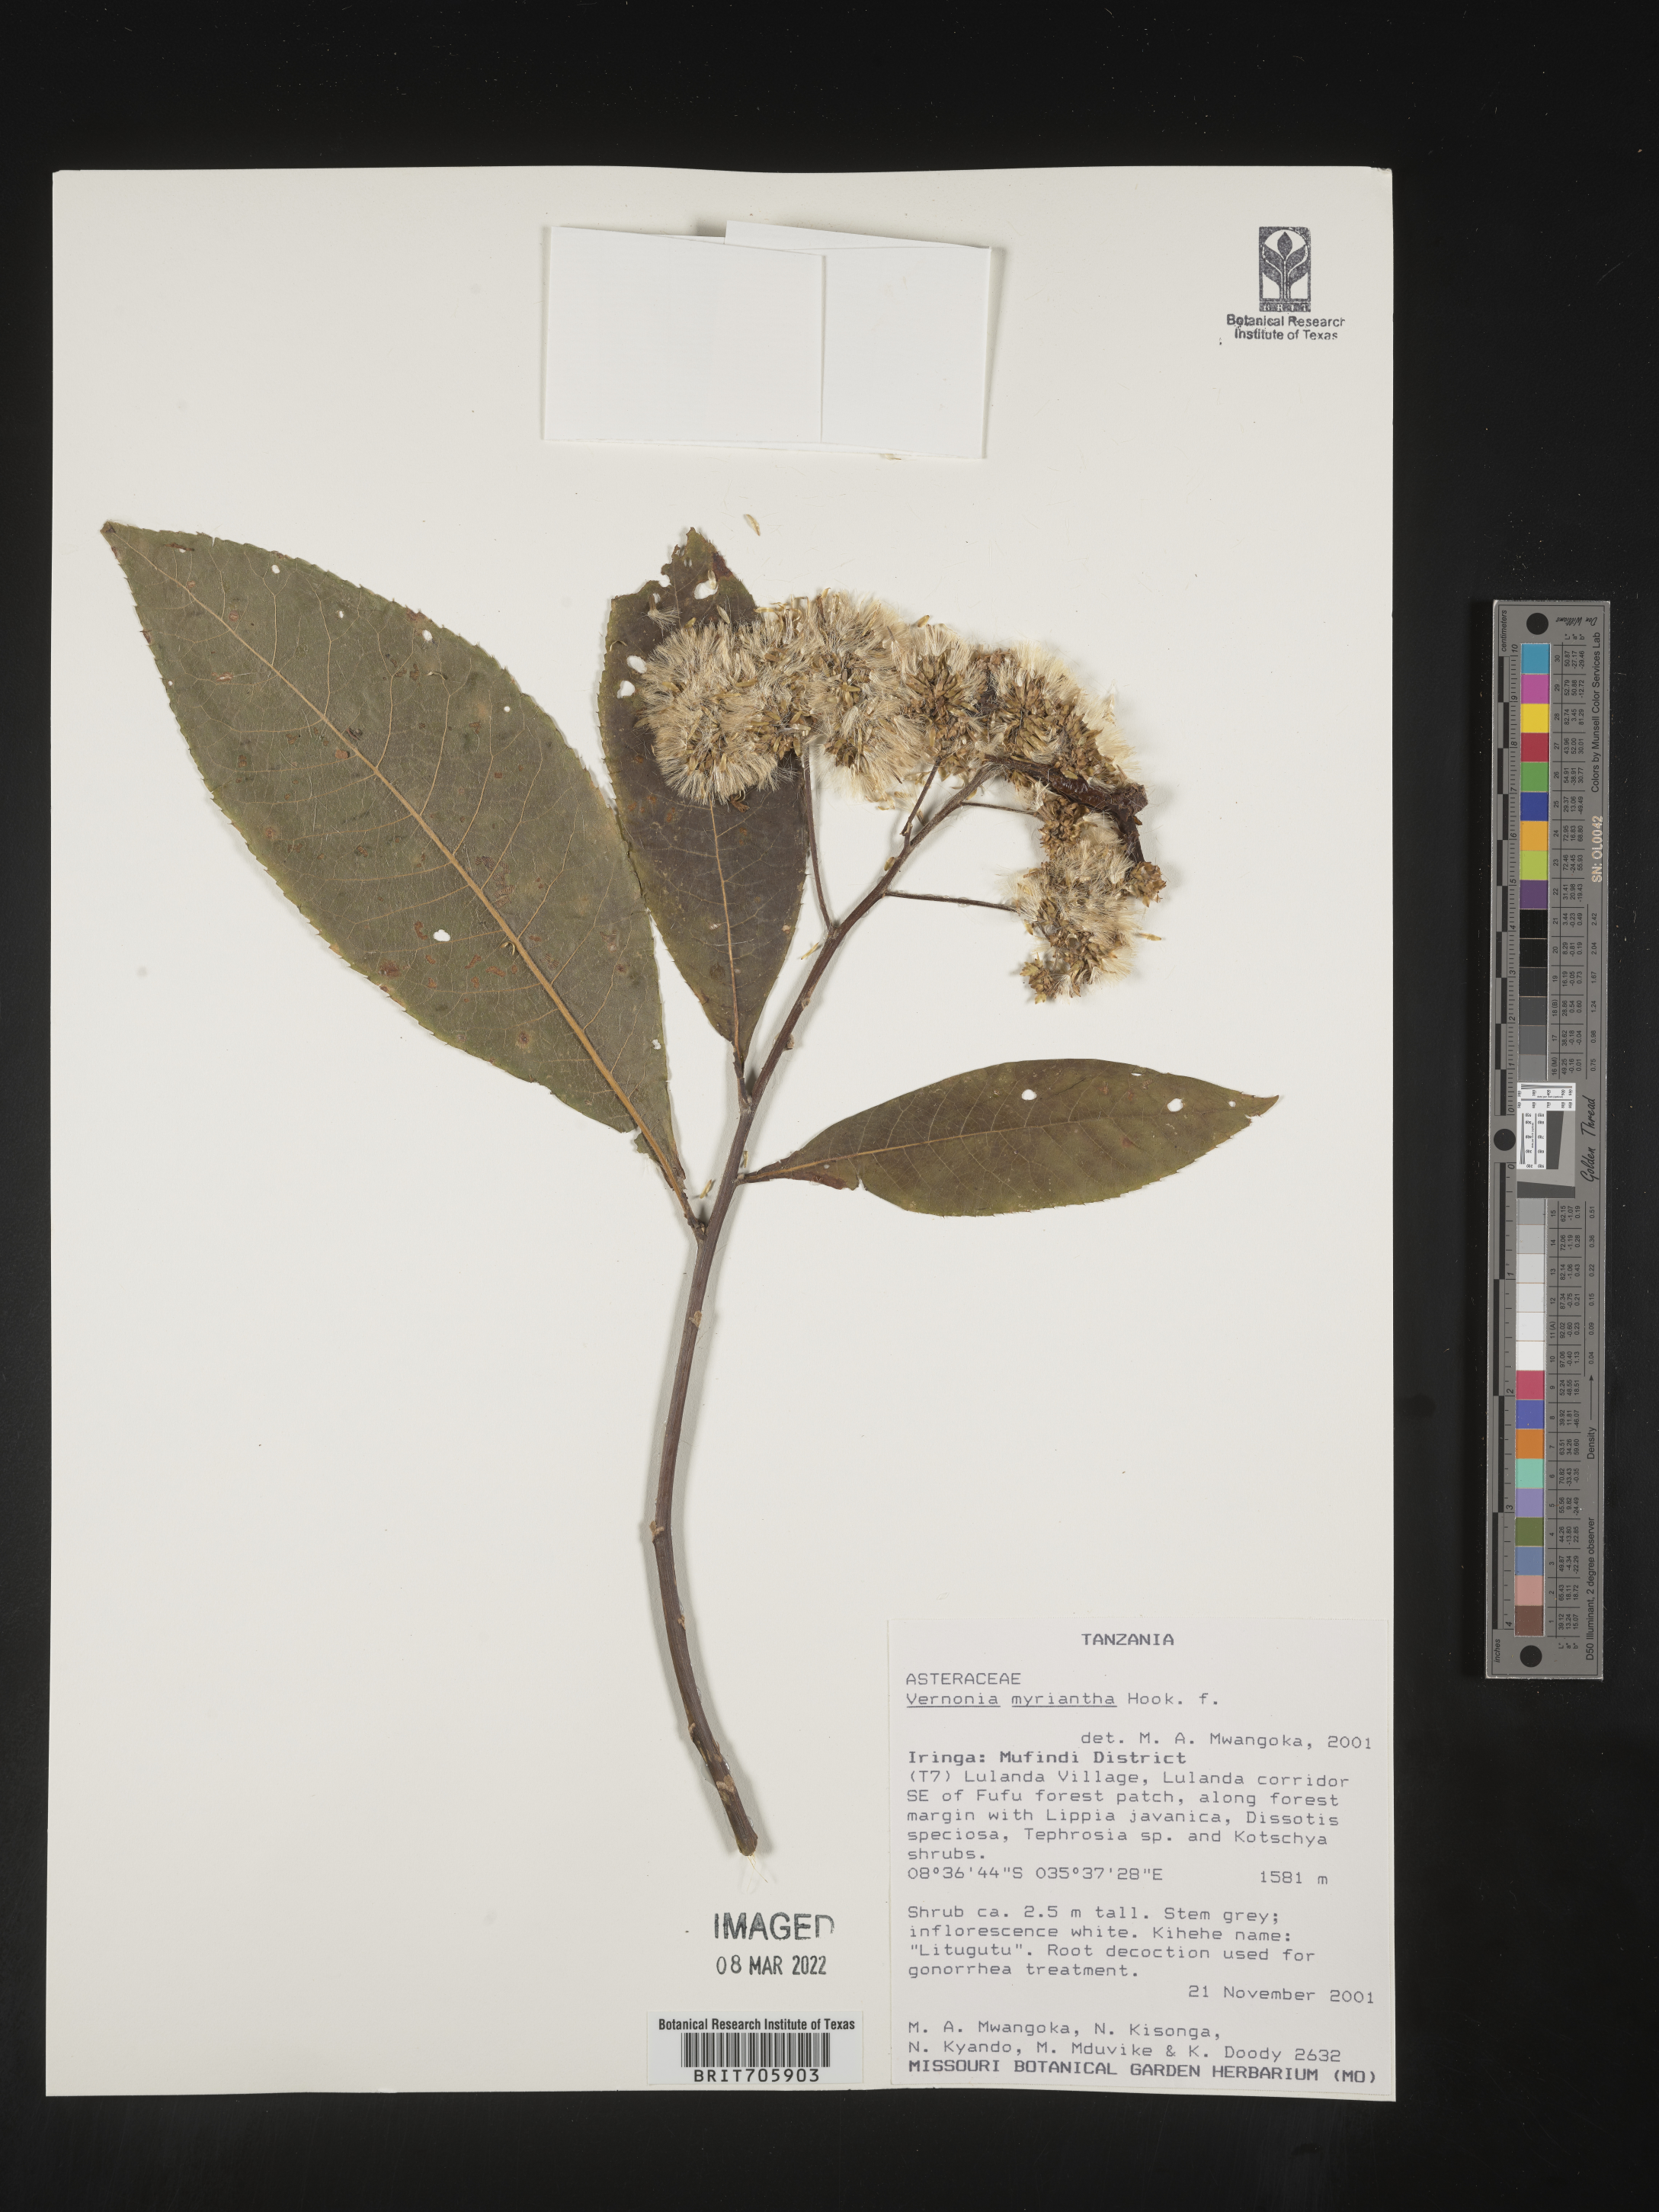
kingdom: Plantae
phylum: Tracheophyta
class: Magnoliopsida
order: Asterales
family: Asteraceae
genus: Vernonia
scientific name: Vernonia
